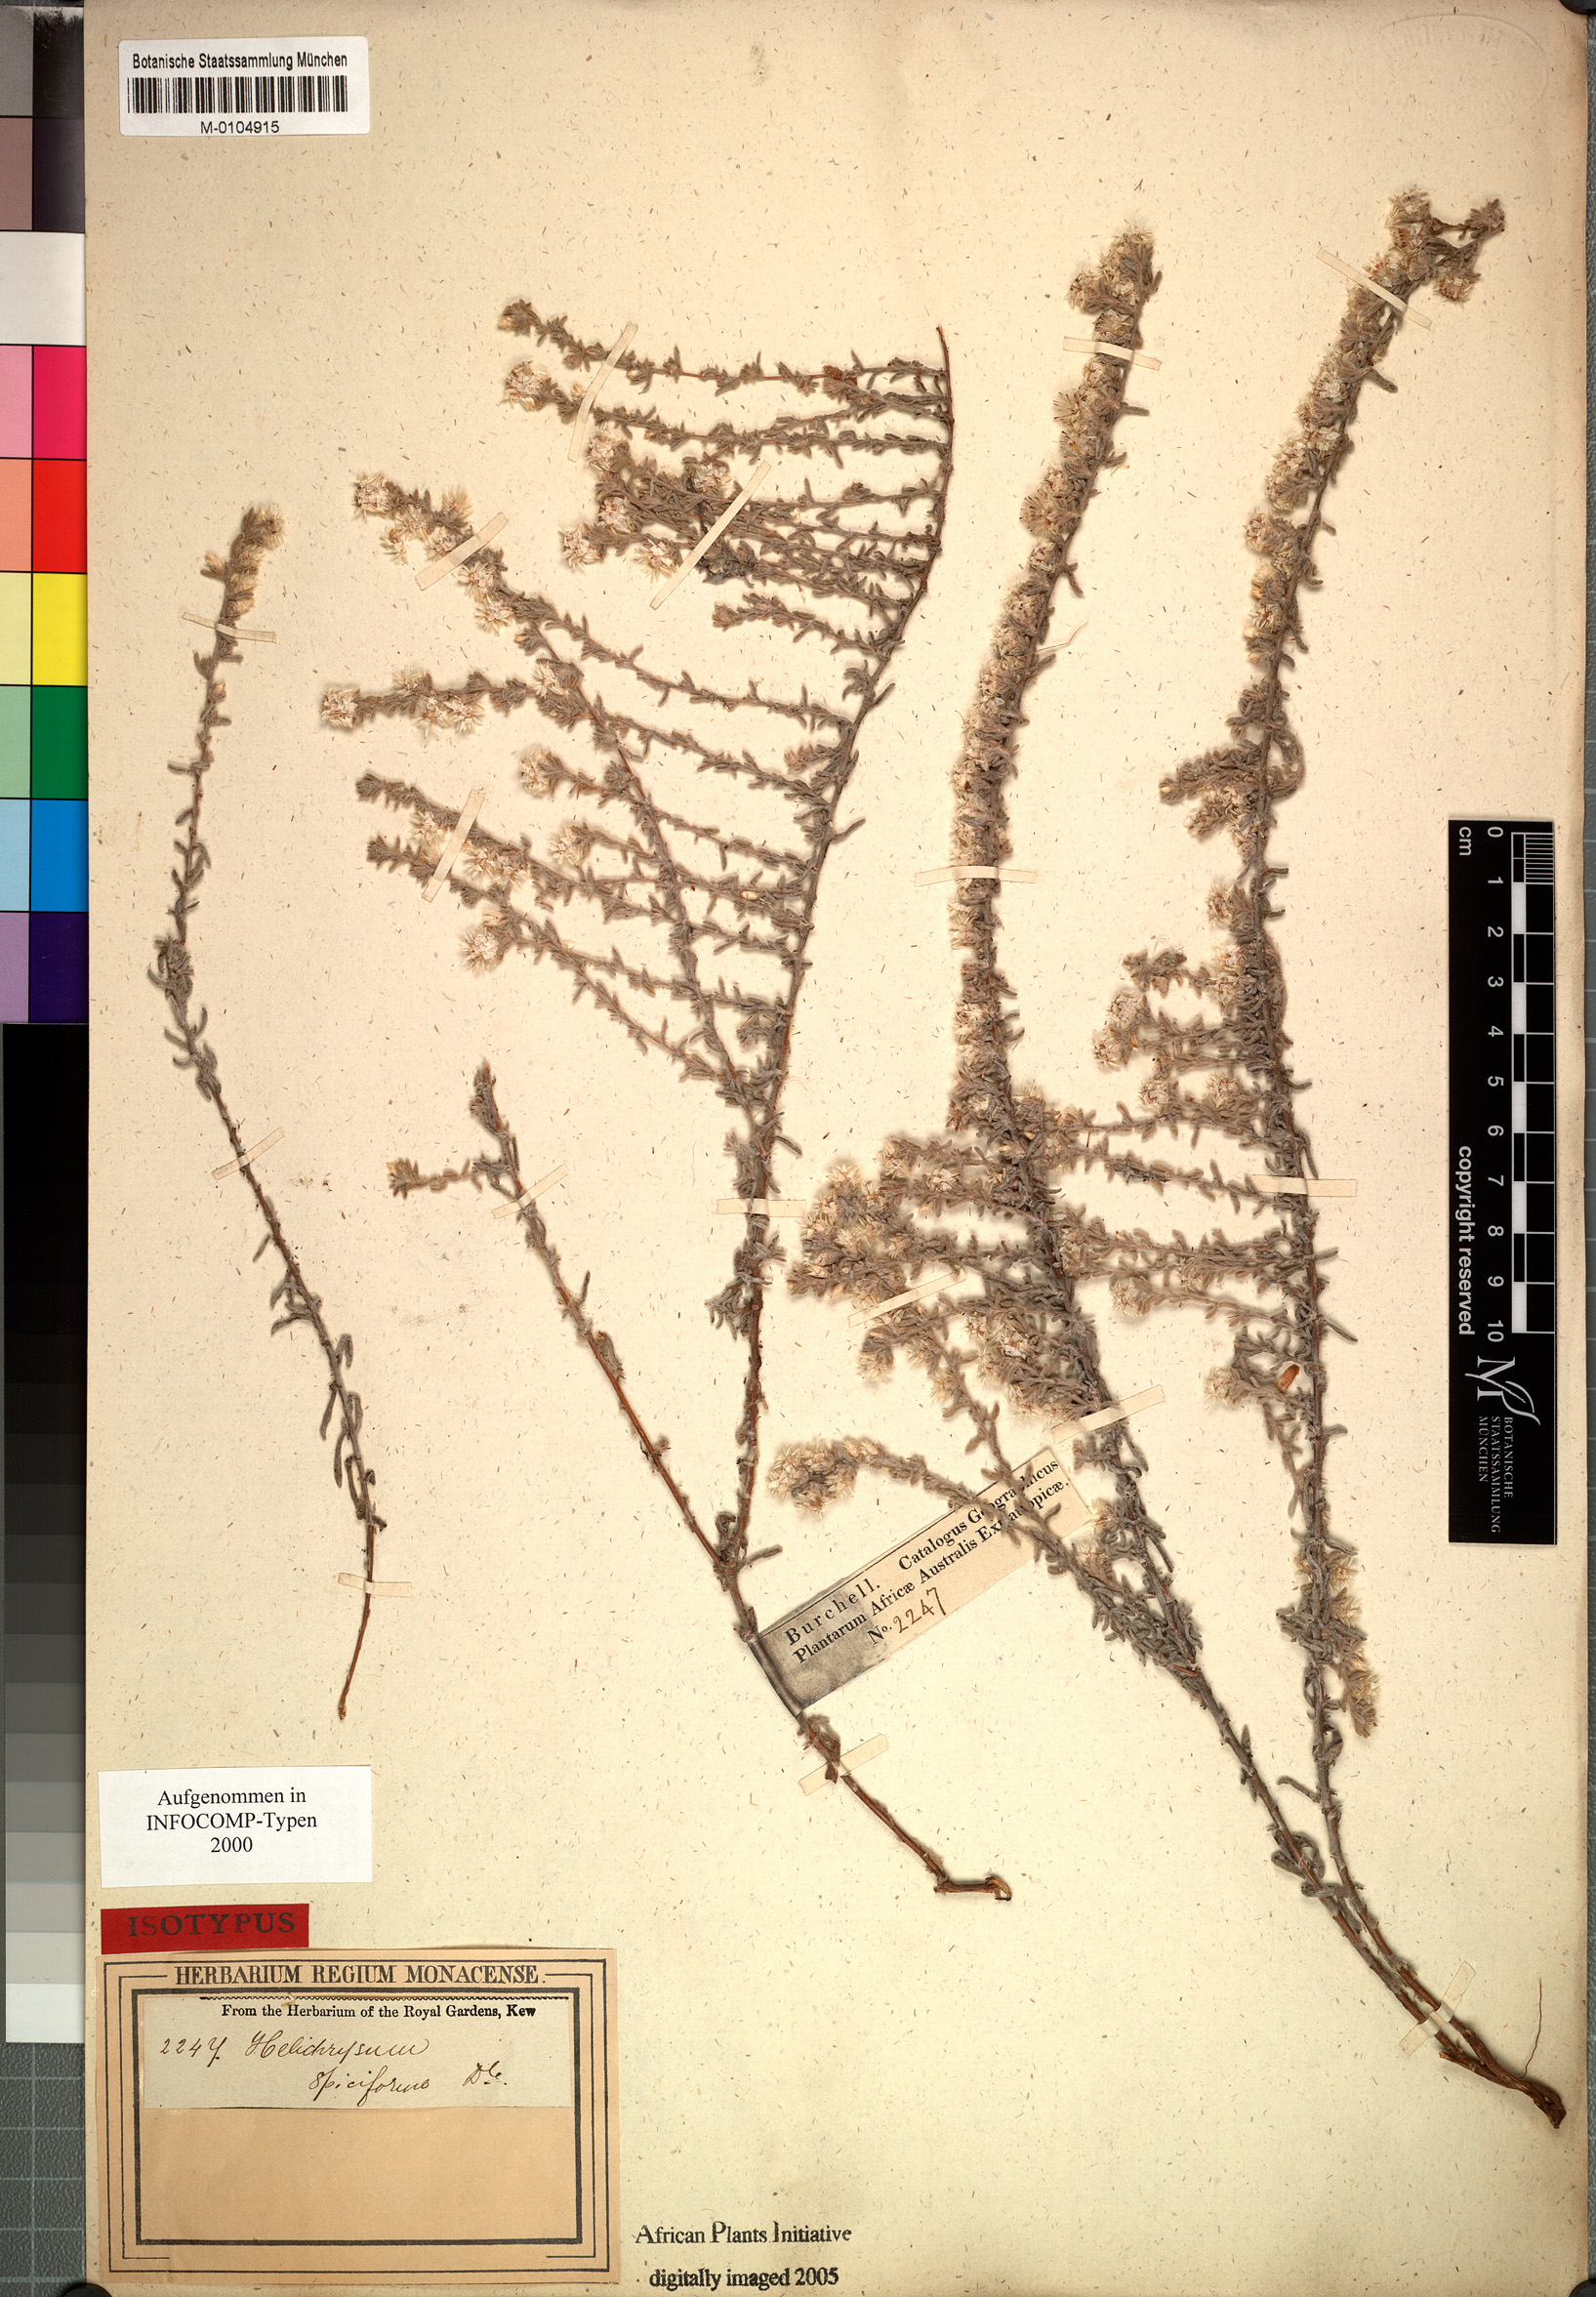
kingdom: Plantae
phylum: Tracheophyta
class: Magnoliopsida
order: Asterales
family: Asteraceae
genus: Helichrysum
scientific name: Helichrysum spiciforme
